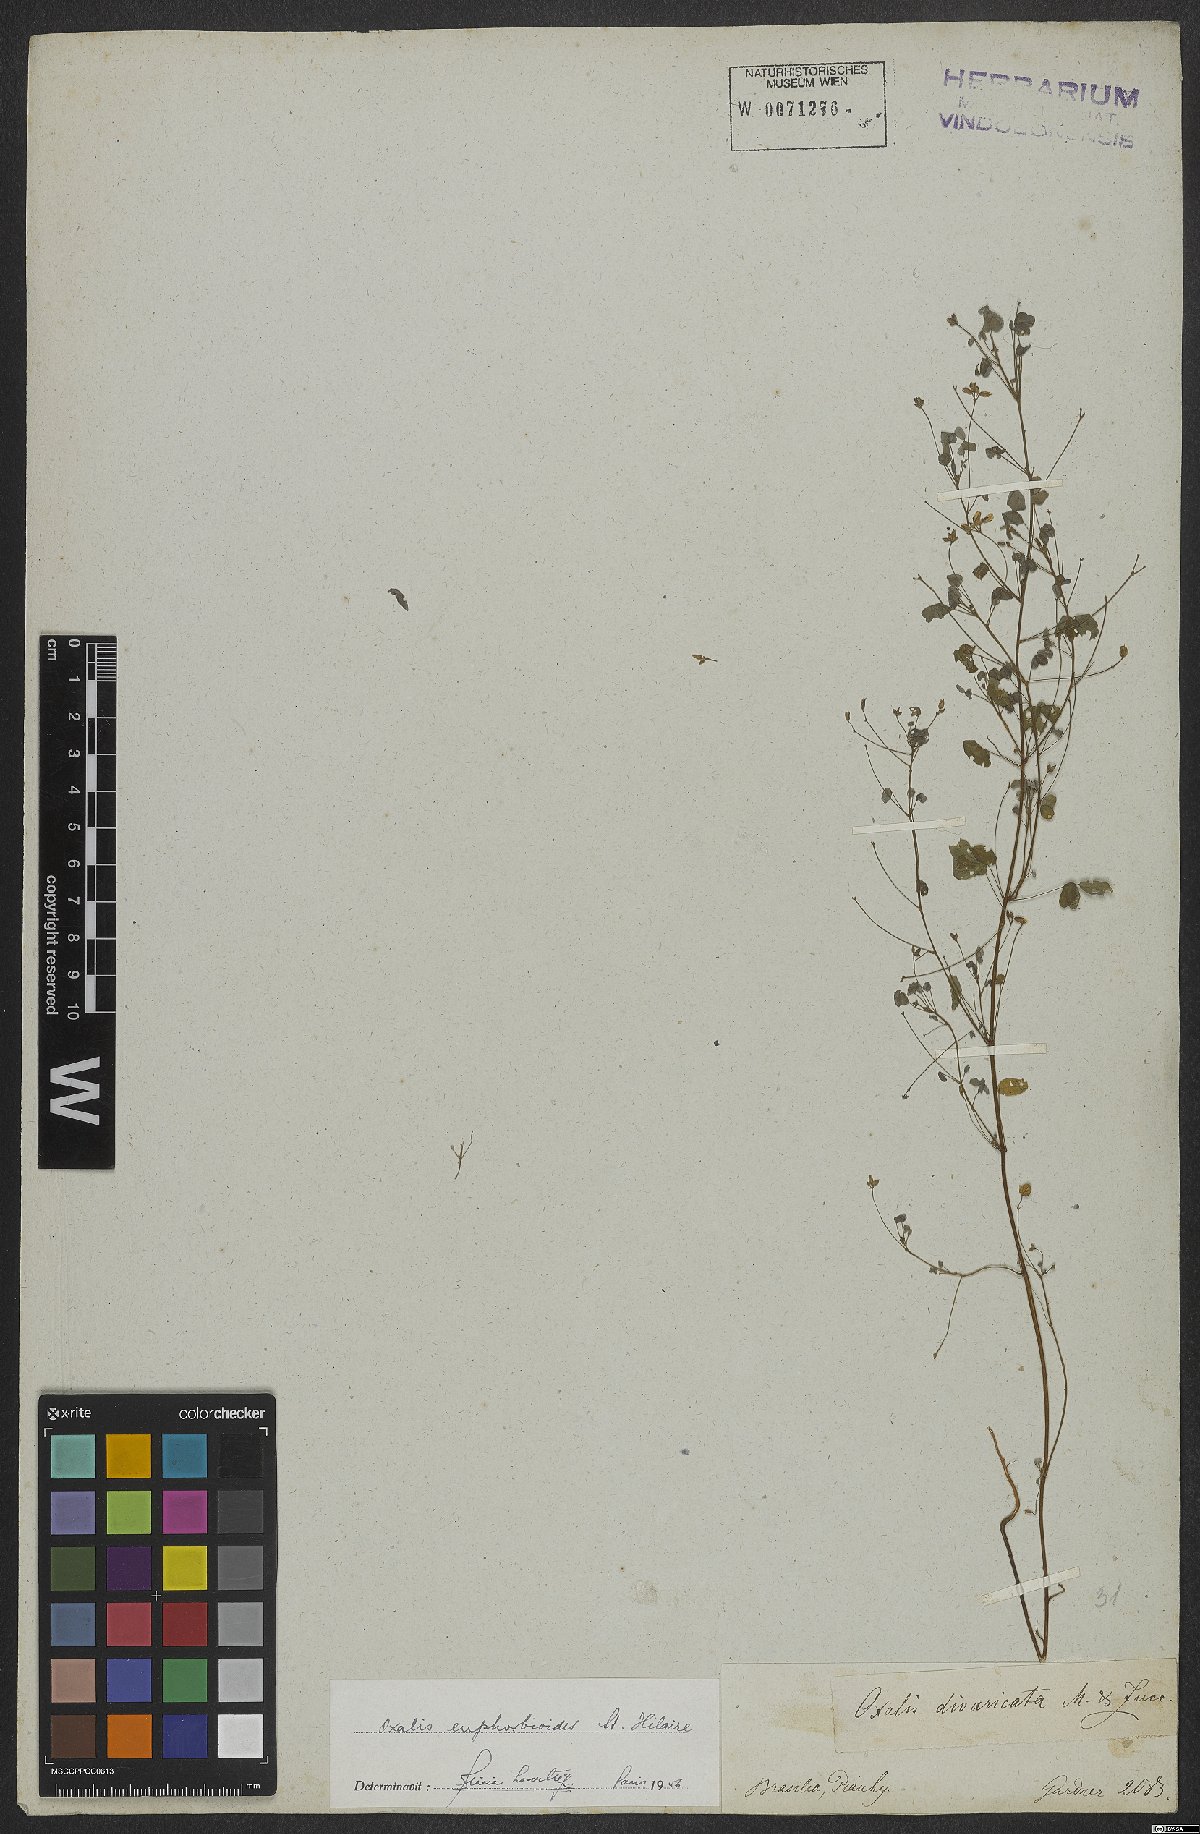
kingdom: Plantae
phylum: Tracheophyta
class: Magnoliopsida
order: Oxalidales
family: Oxalidaceae
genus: Oxalis
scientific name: Oxalis divaricata
